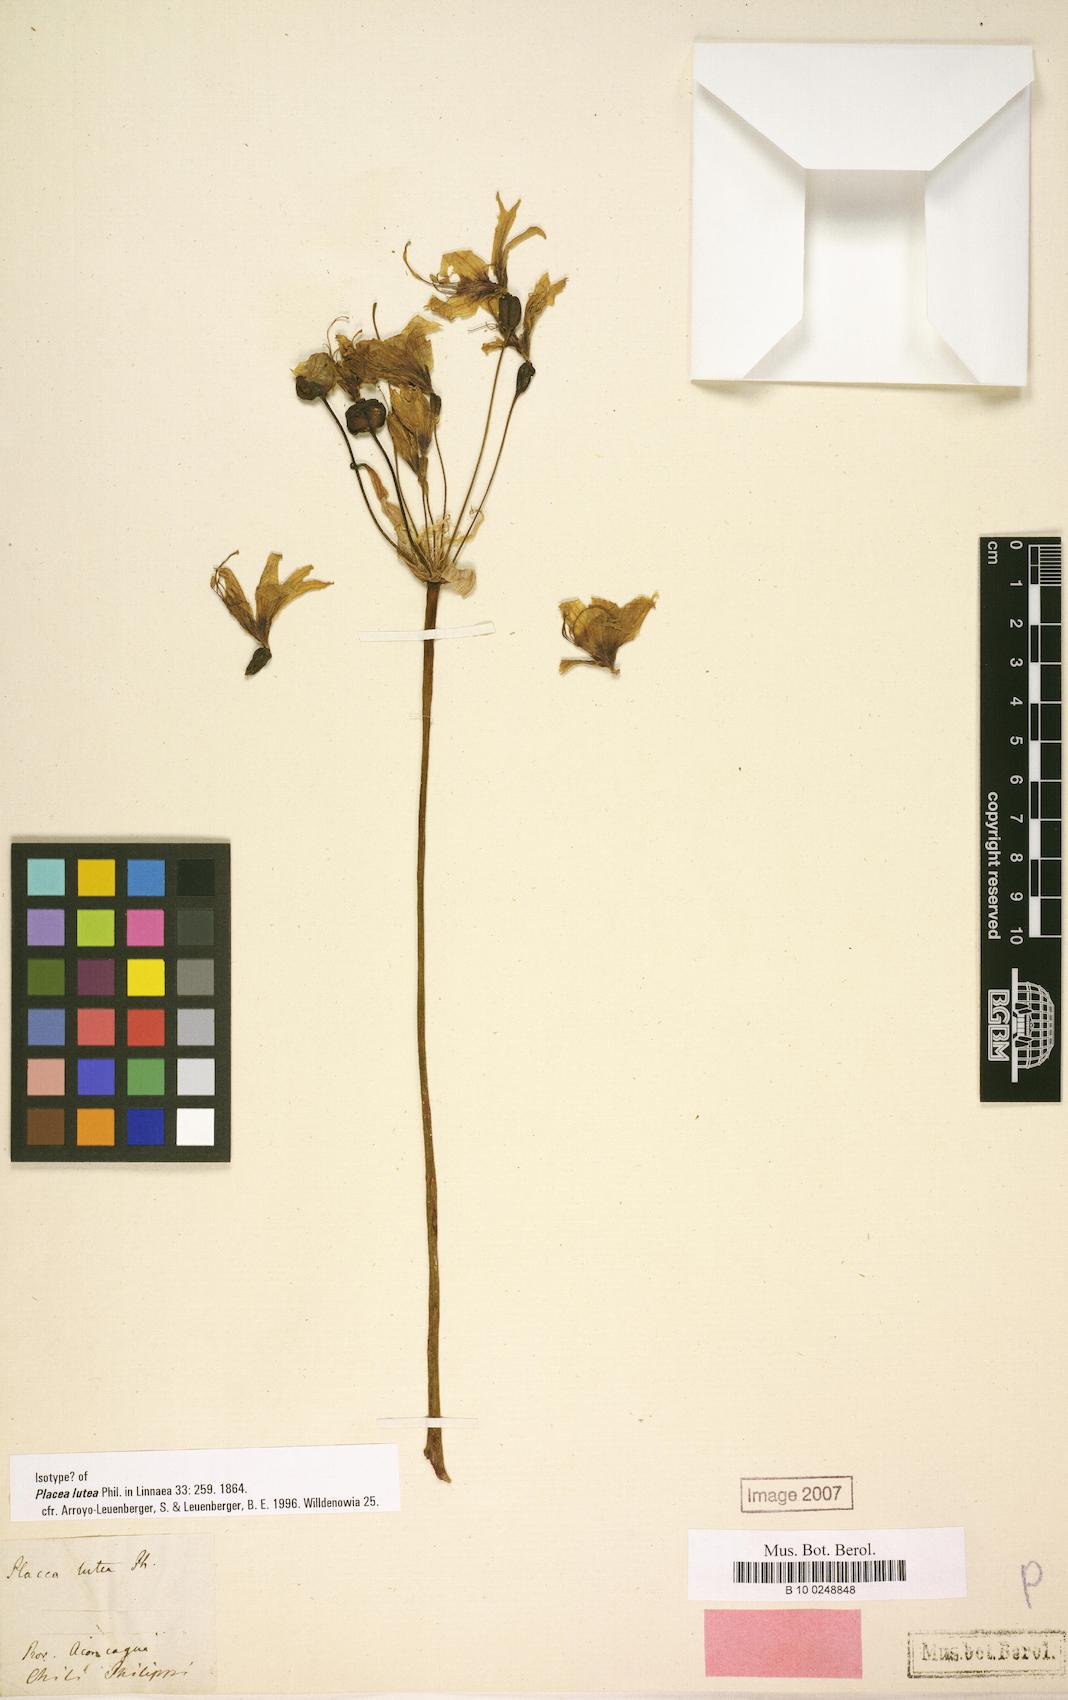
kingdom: Plantae
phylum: Tracheophyta
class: Liliopsida
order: Asparagales
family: Amaryllidaceae
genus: Phycella
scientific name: Phycella lutea
